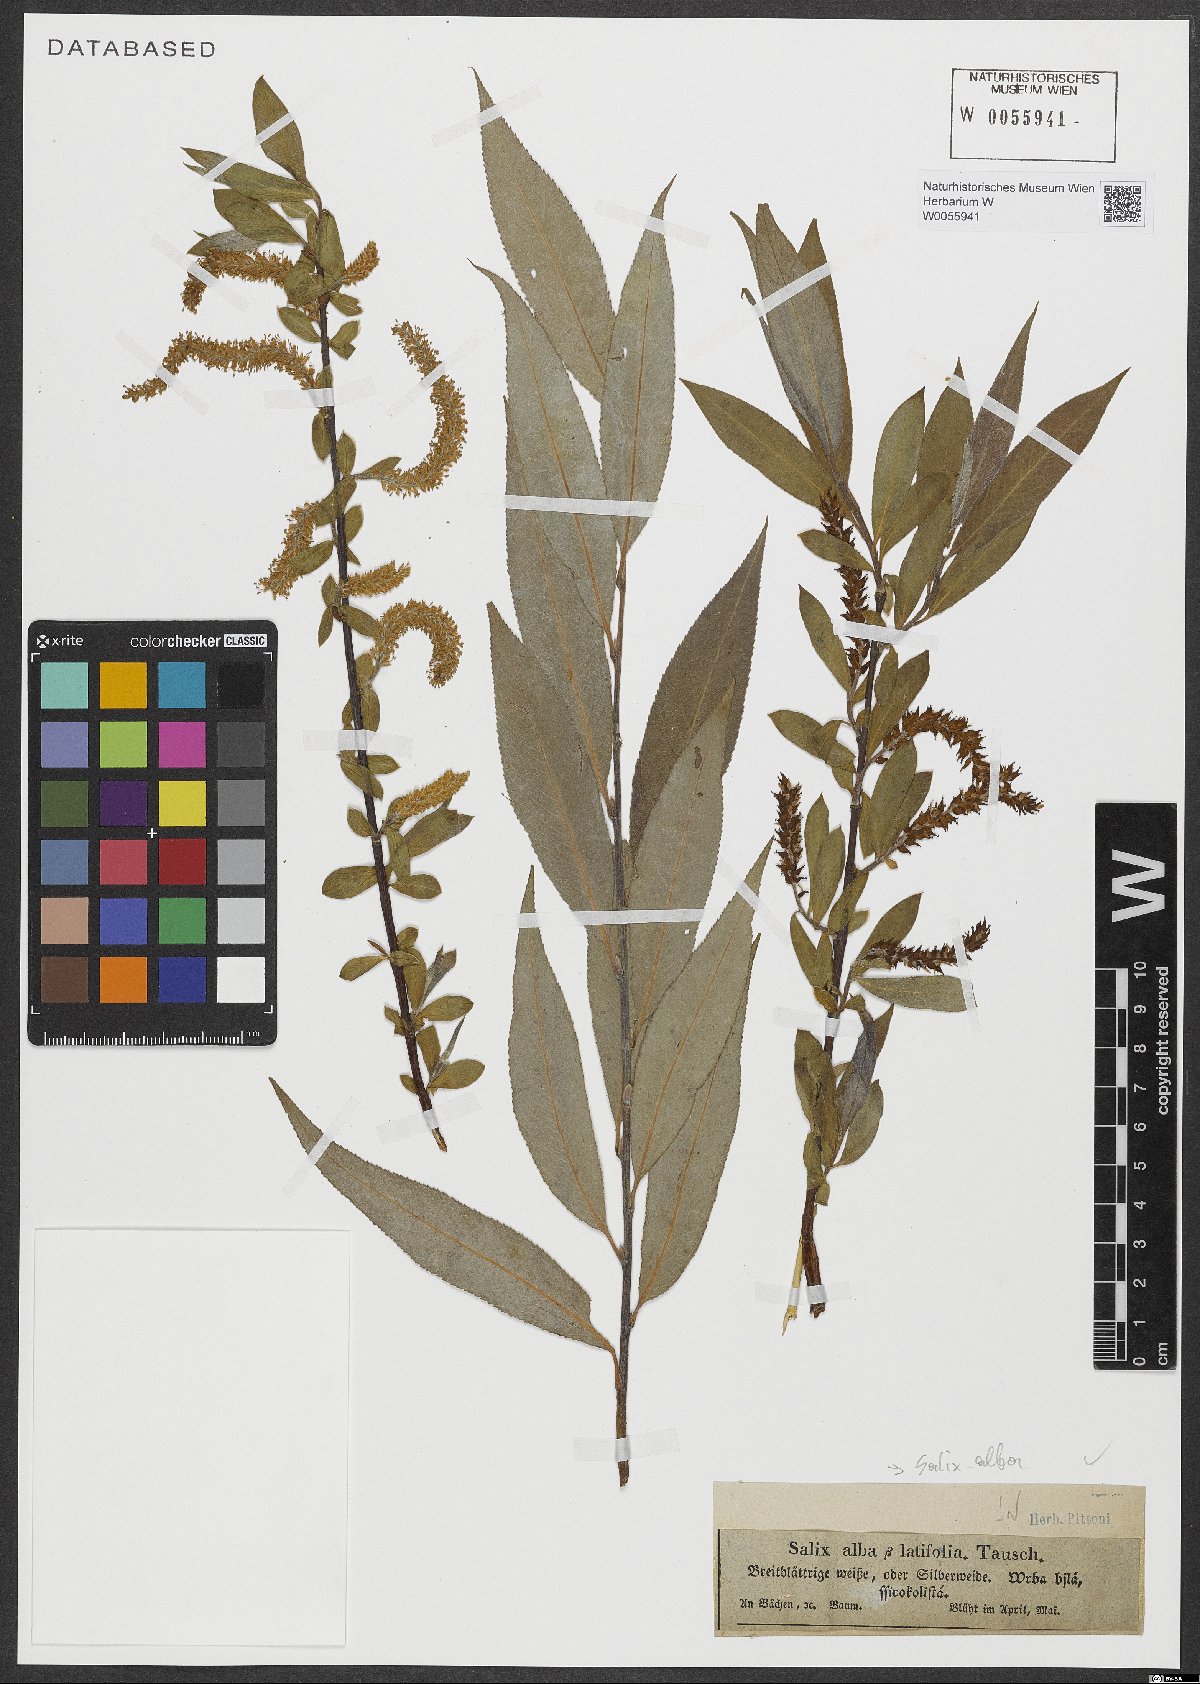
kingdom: Plantae
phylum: Tracheophyta
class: Magnoliopsida
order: Malpighiales
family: Salicaceae
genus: Salix
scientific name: Salix alba
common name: White willow
